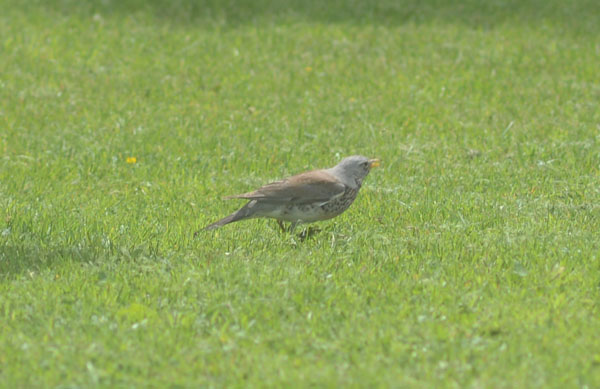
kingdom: Animalia
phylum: Chordata
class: Aves
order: Passeriformes
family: Turdidae
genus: Turdus
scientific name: Turdus pilaris
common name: Fieldfare
